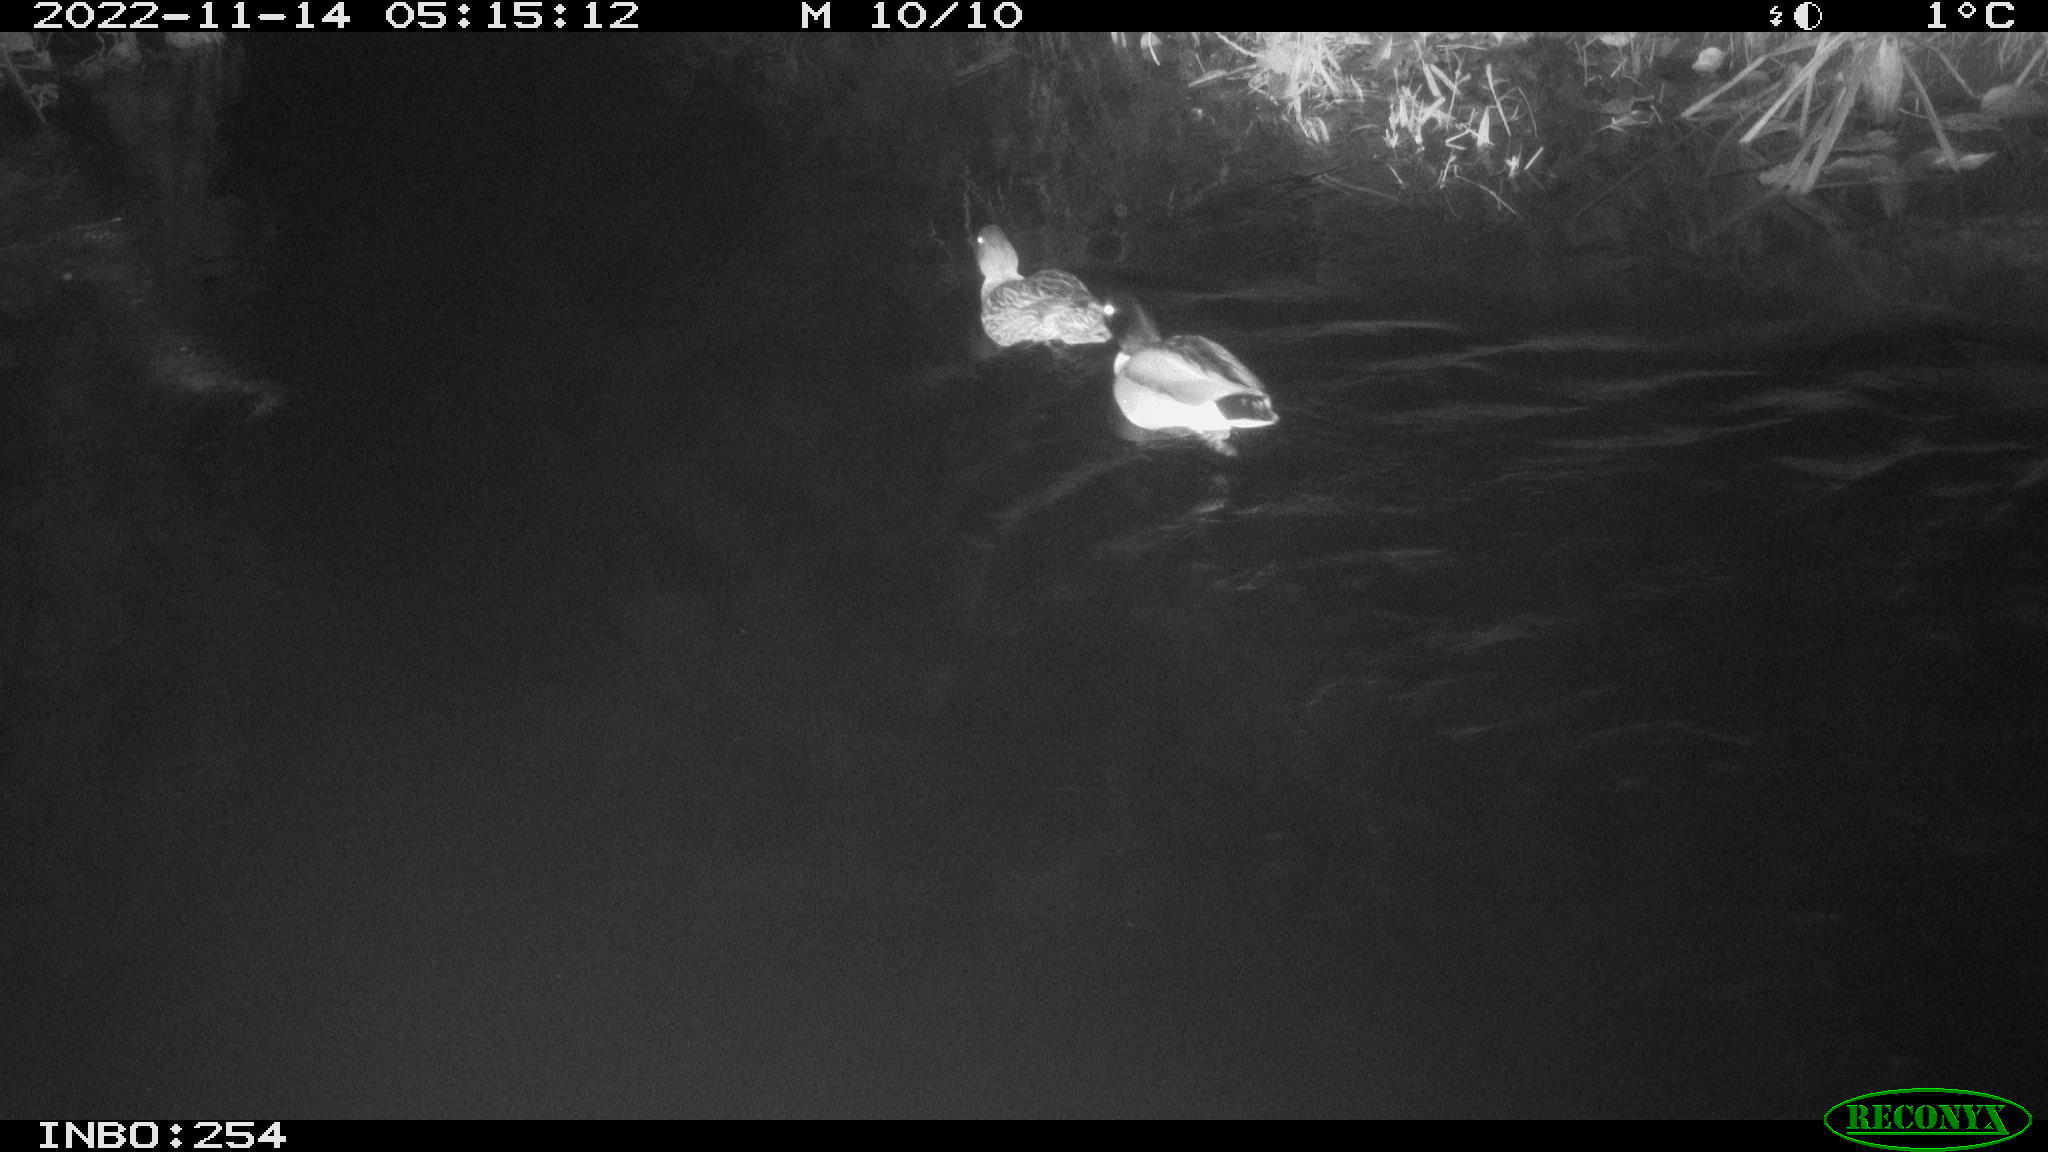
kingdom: Animalia
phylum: Chordata
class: Aves
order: Anseriformes
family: Anatidae
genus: Anas
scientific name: Anas
